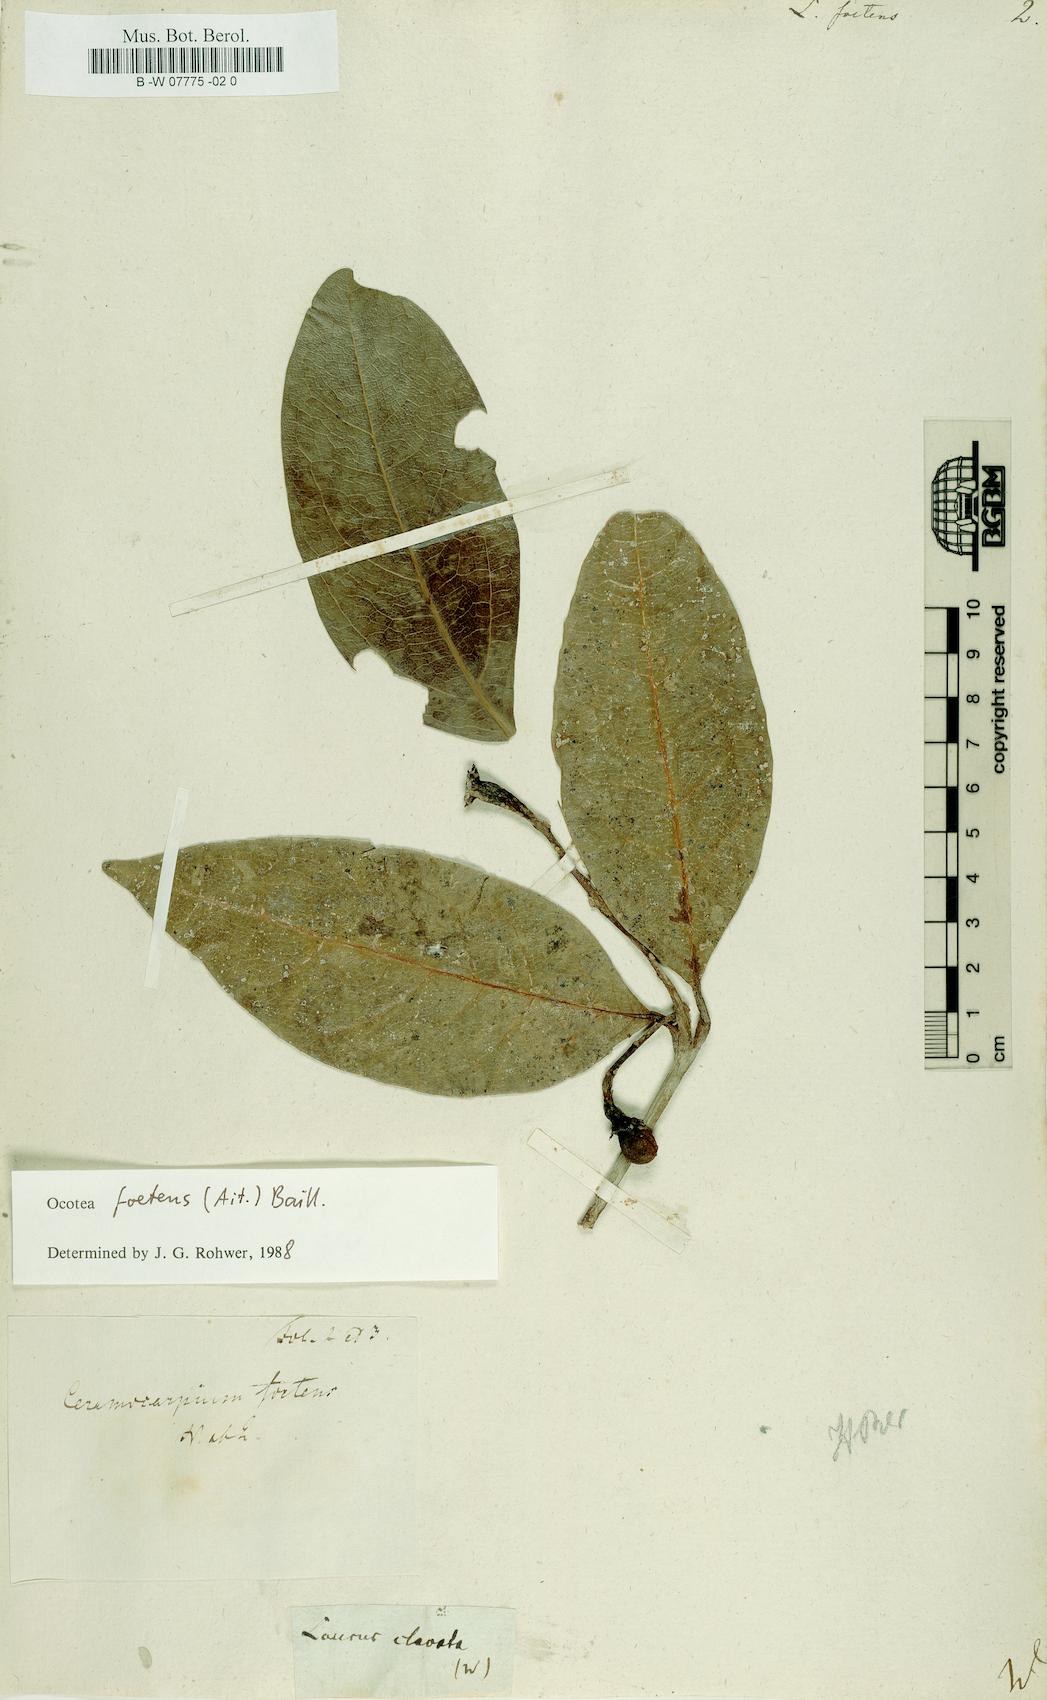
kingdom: Plantae
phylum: Tracheophyta
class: Magnoliopsida
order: Laurales
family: Lauraceae
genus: Persea
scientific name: Persea borbonia
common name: Redbay
